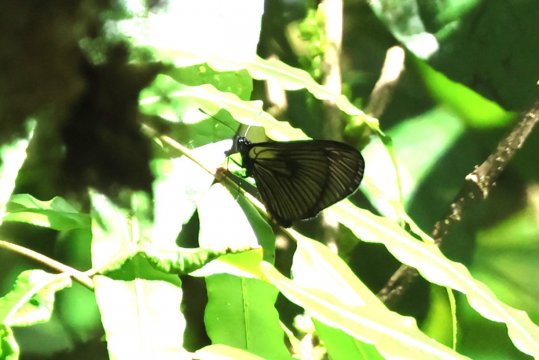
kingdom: Animalia
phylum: Arthropoda
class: Insecta
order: Lepidoptera
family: Nymphalidae
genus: Acraea
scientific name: Acraea Altinote ozomene
